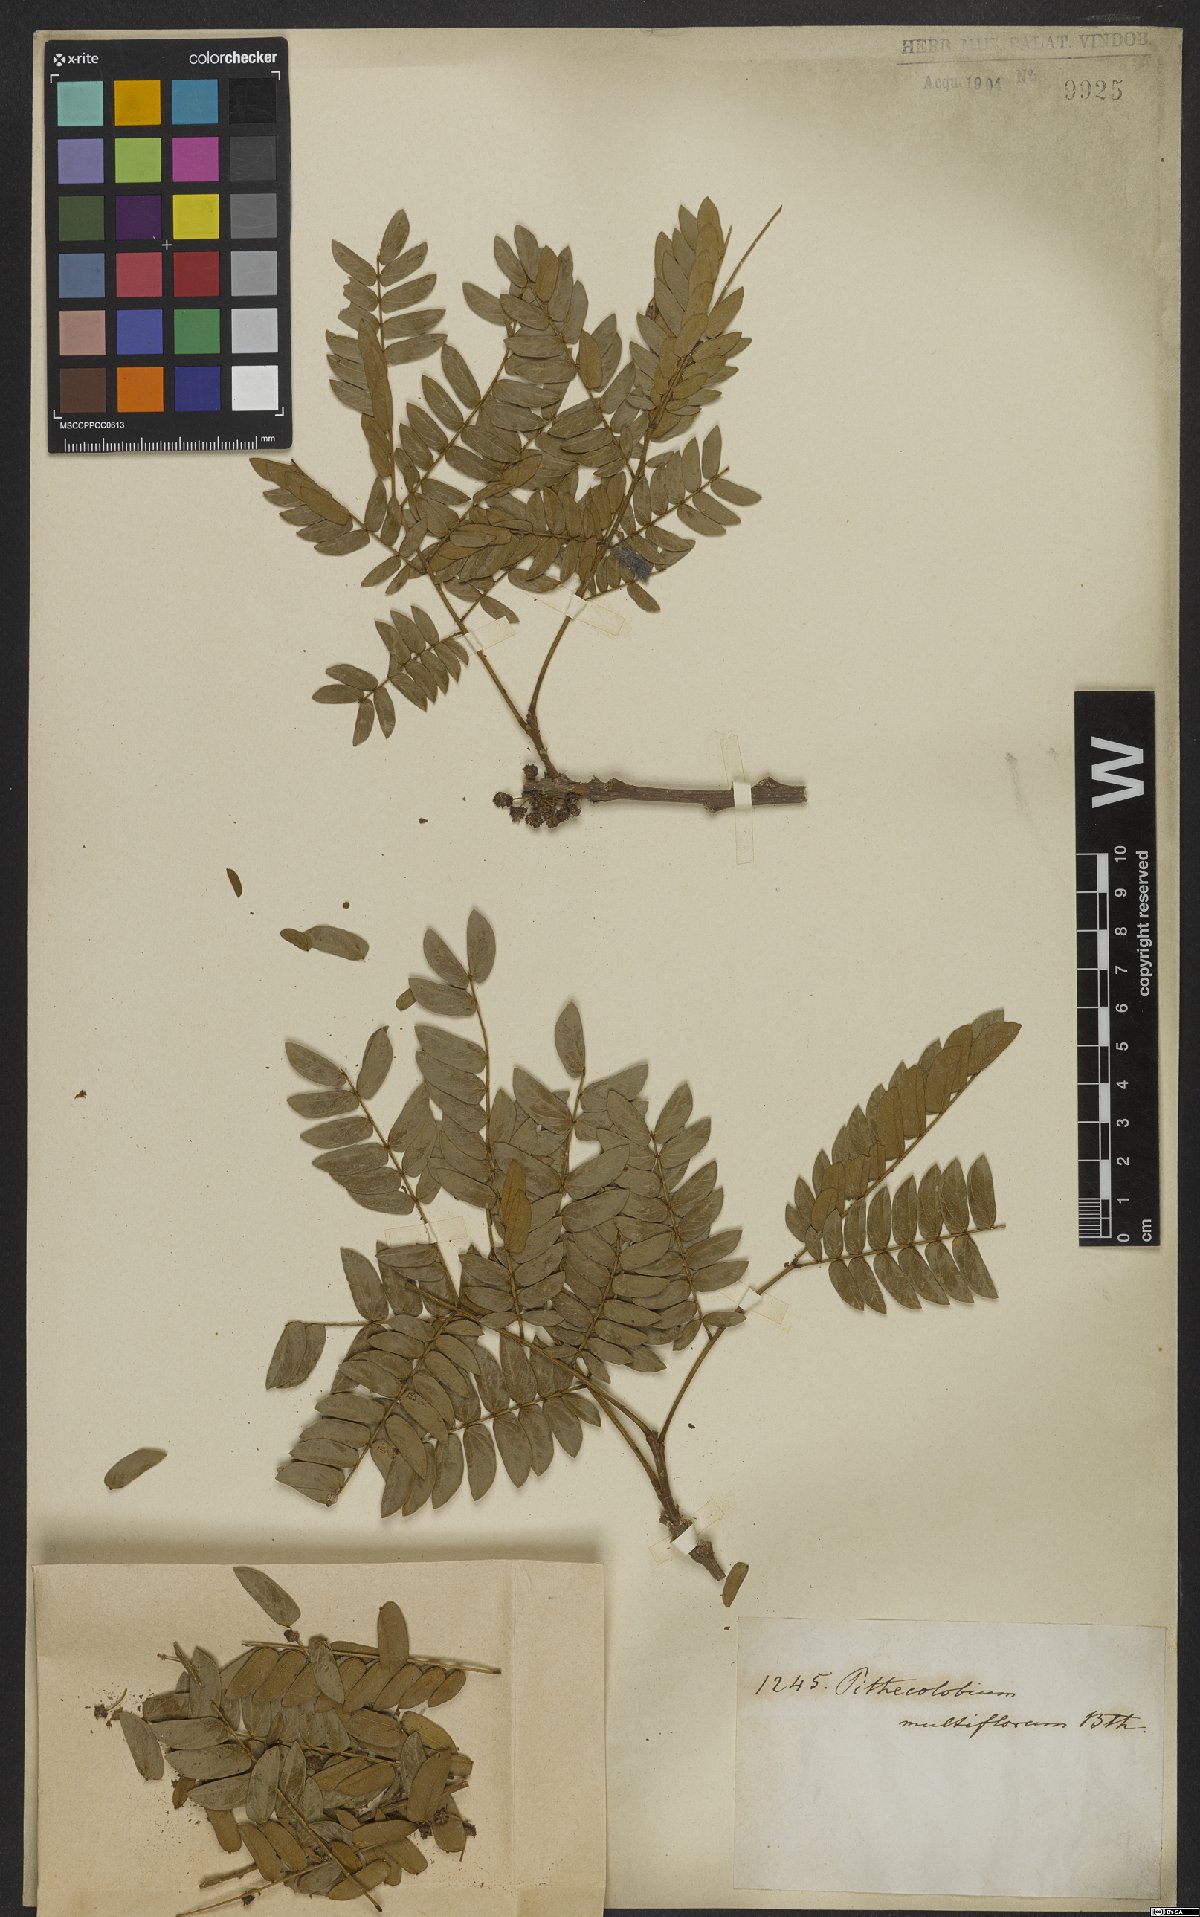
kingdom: Plantae
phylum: Tracheophyta
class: Magnoliopsida
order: Fabales
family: Fabaceae
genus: Albizia
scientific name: Albizia multiflora
